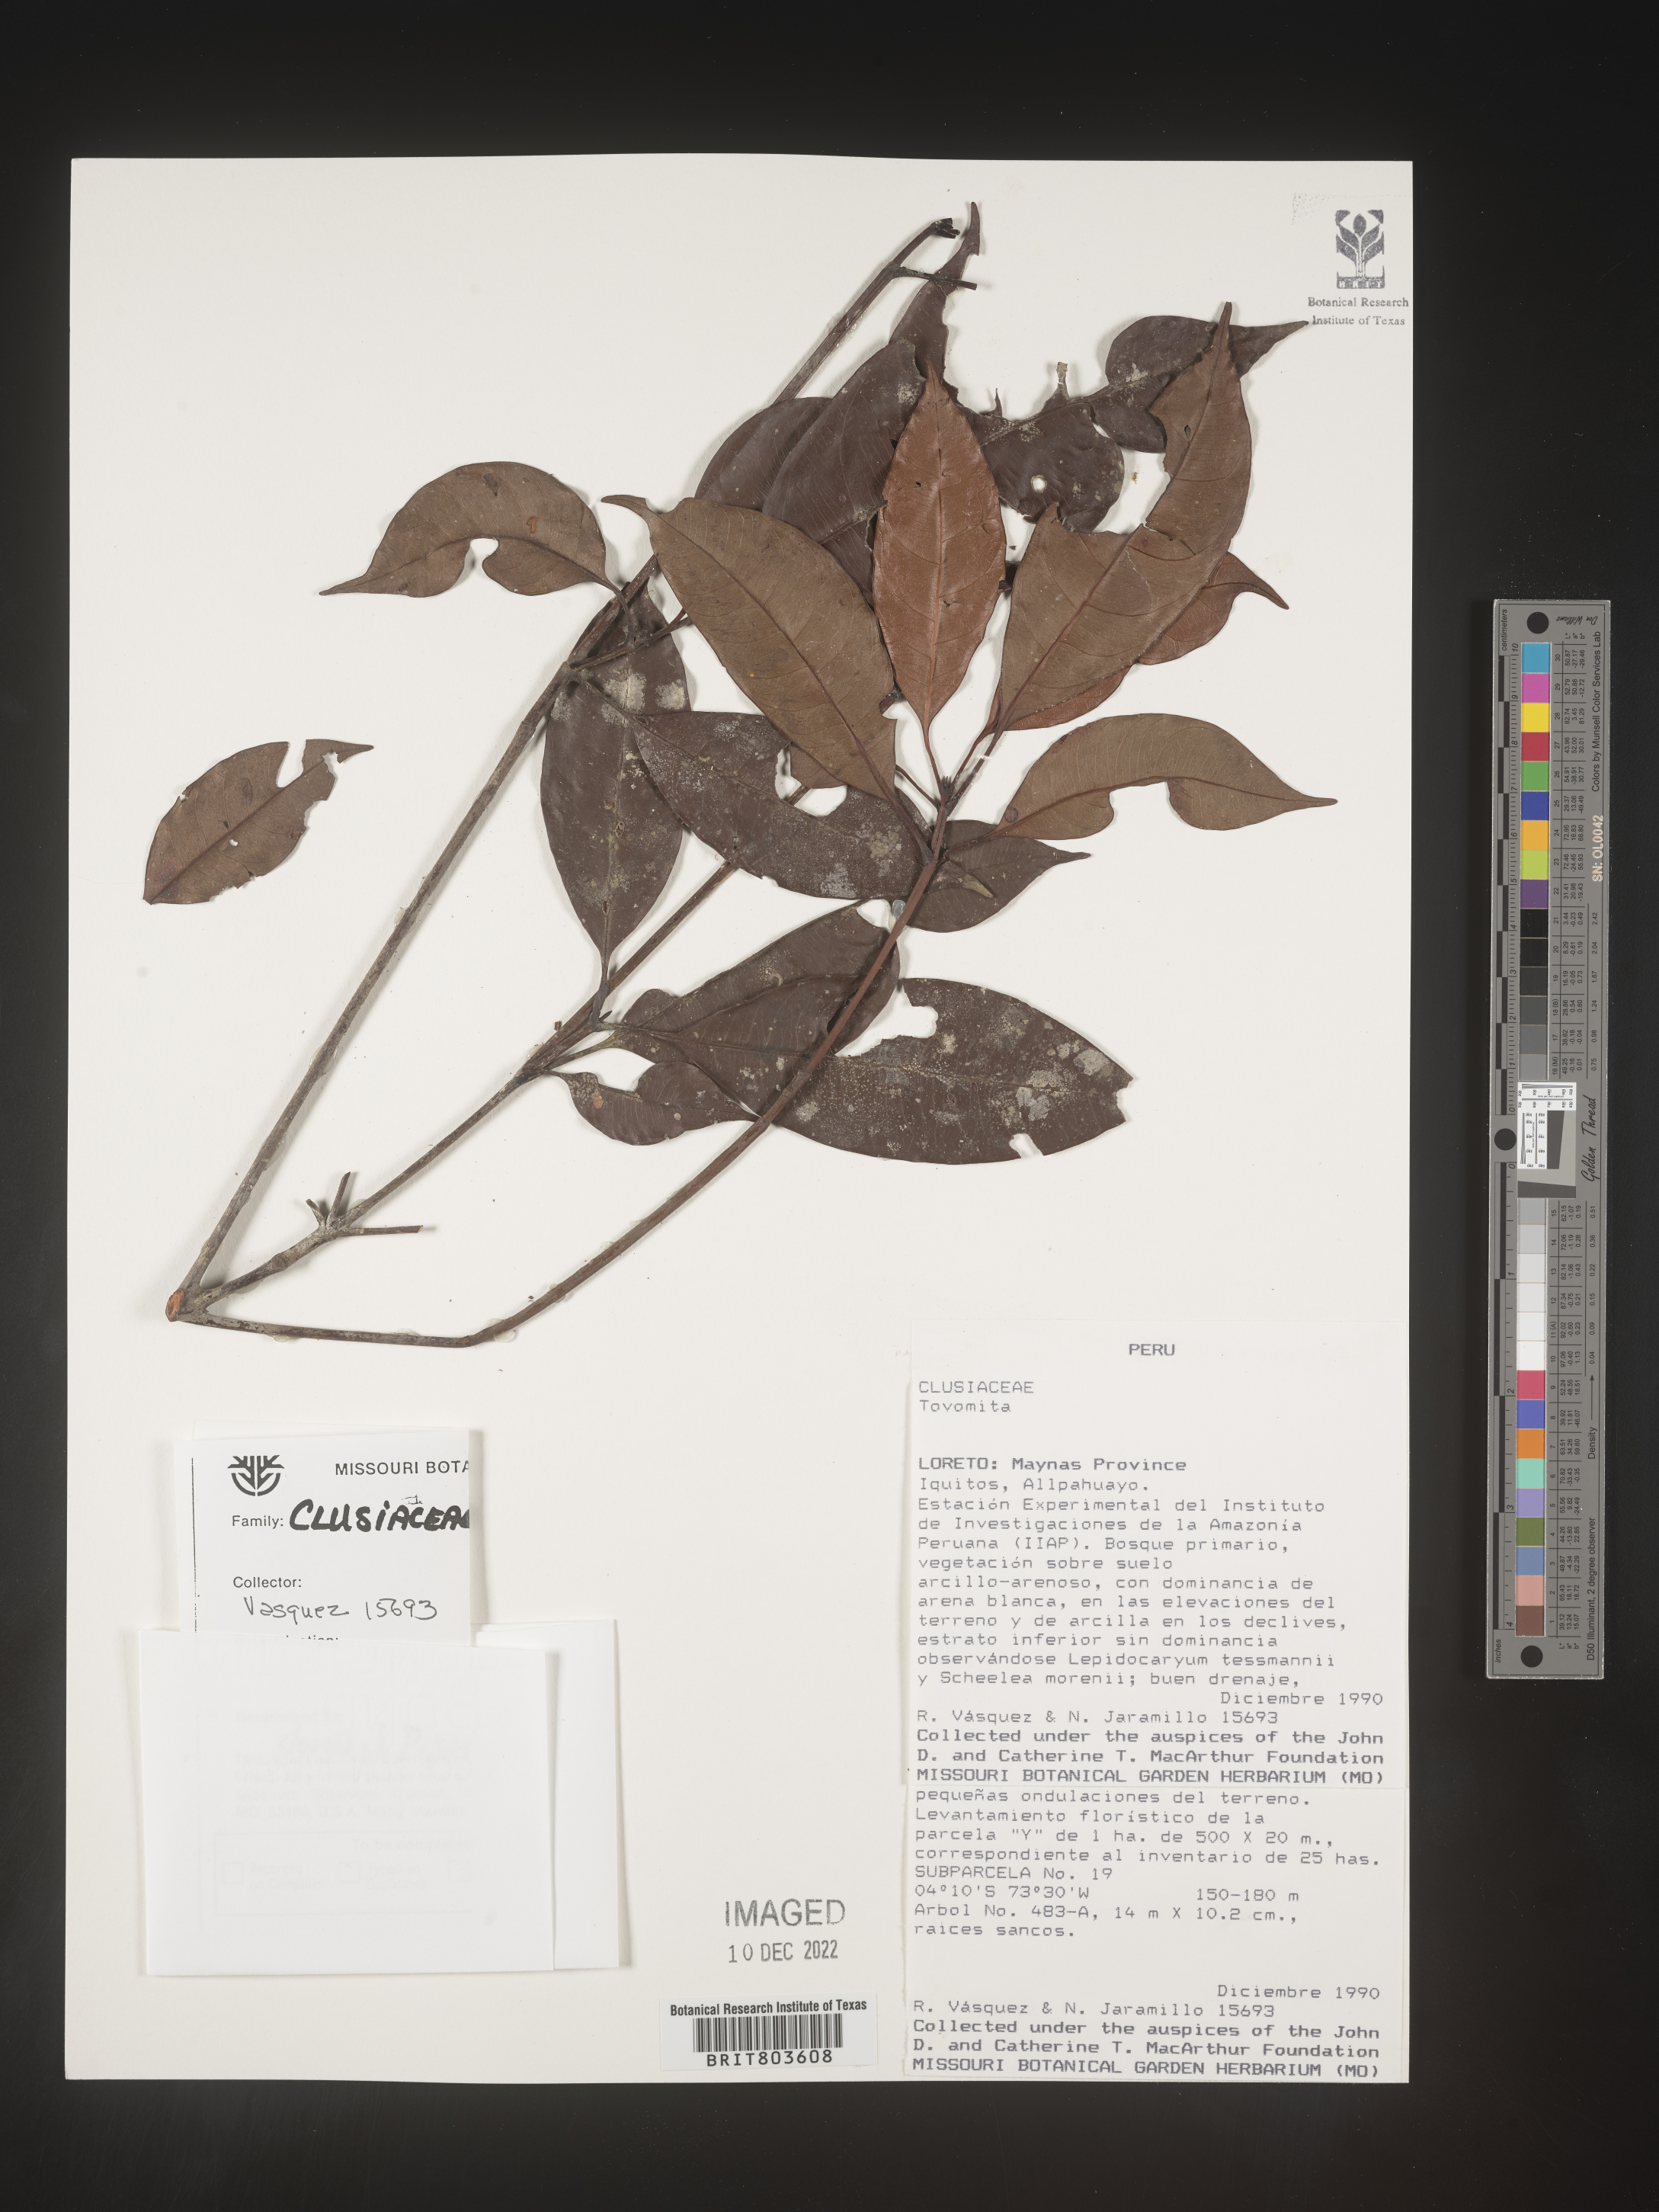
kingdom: Plantae
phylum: Tracheophyta
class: Magnoliopsida
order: Malpighiales
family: Clusiaceae
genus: Tovomita
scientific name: Tovomita
